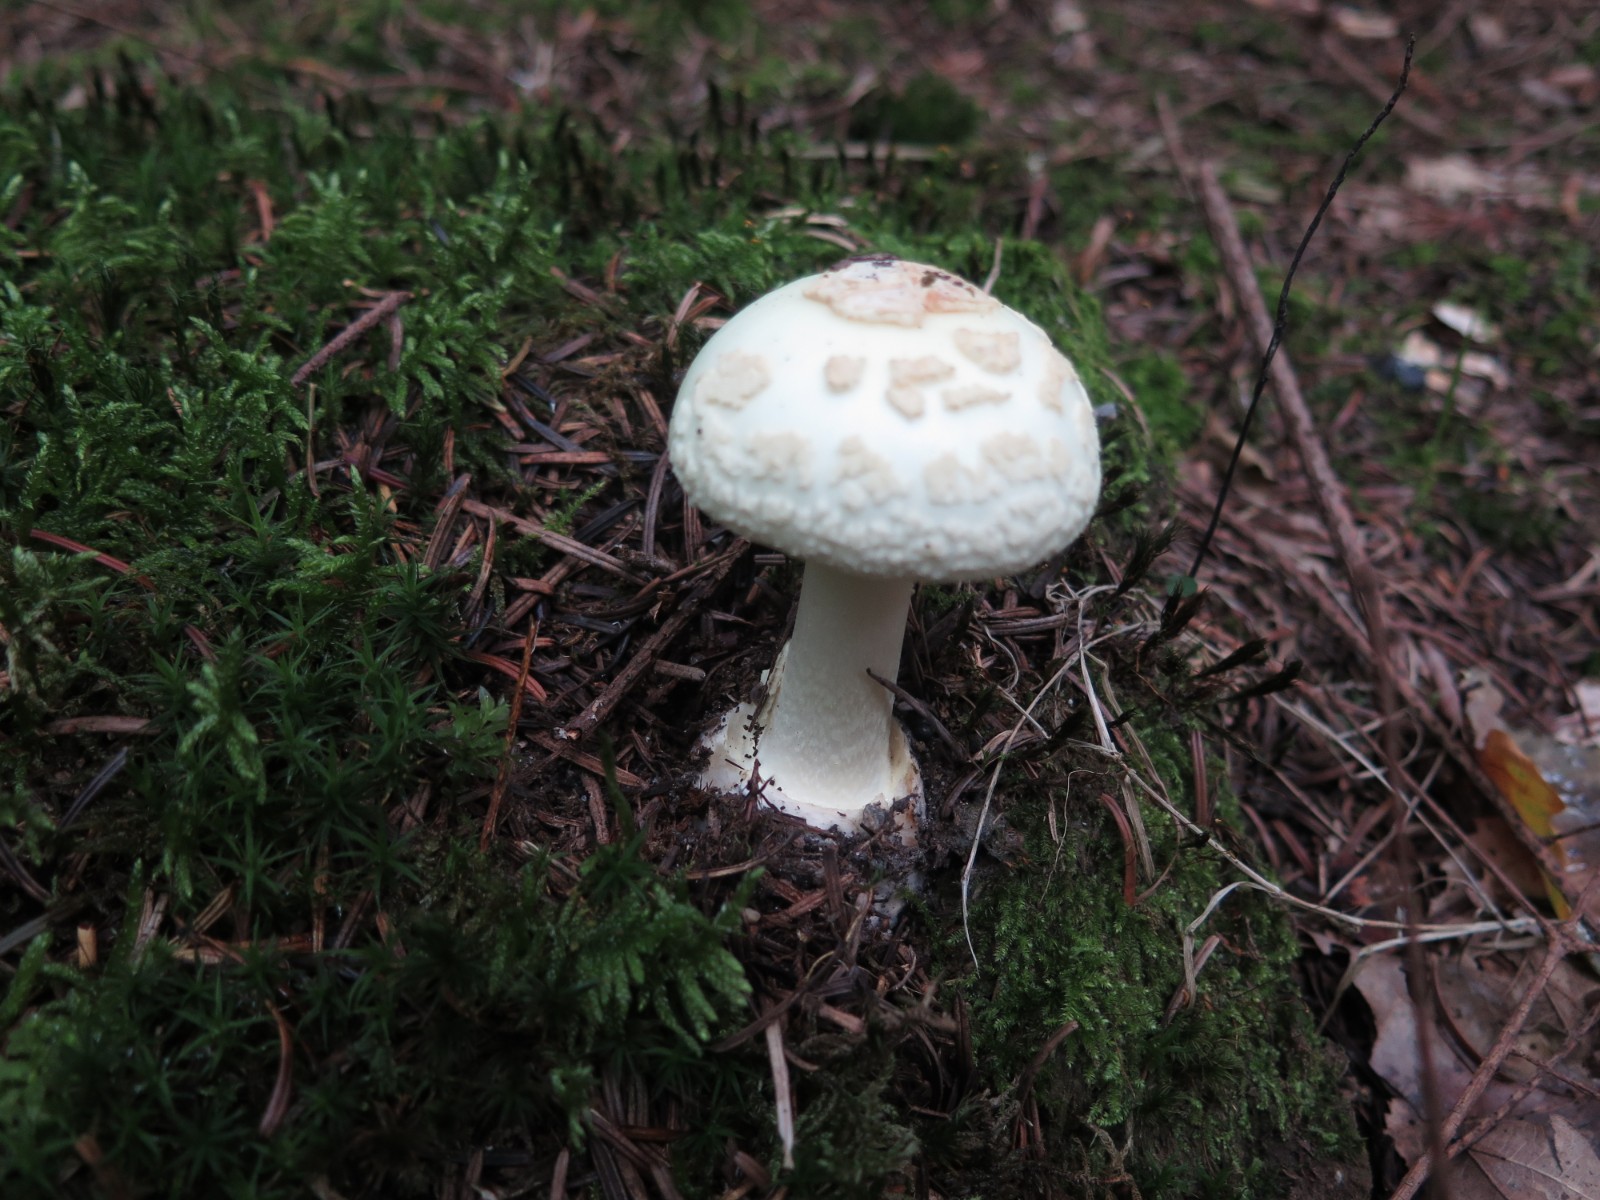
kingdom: Fungi
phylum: Basidiomycota
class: Agaricomycetes
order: Agaricales
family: Amanitaceae
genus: Amanita
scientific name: Amanita citrina
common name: False death-cap
